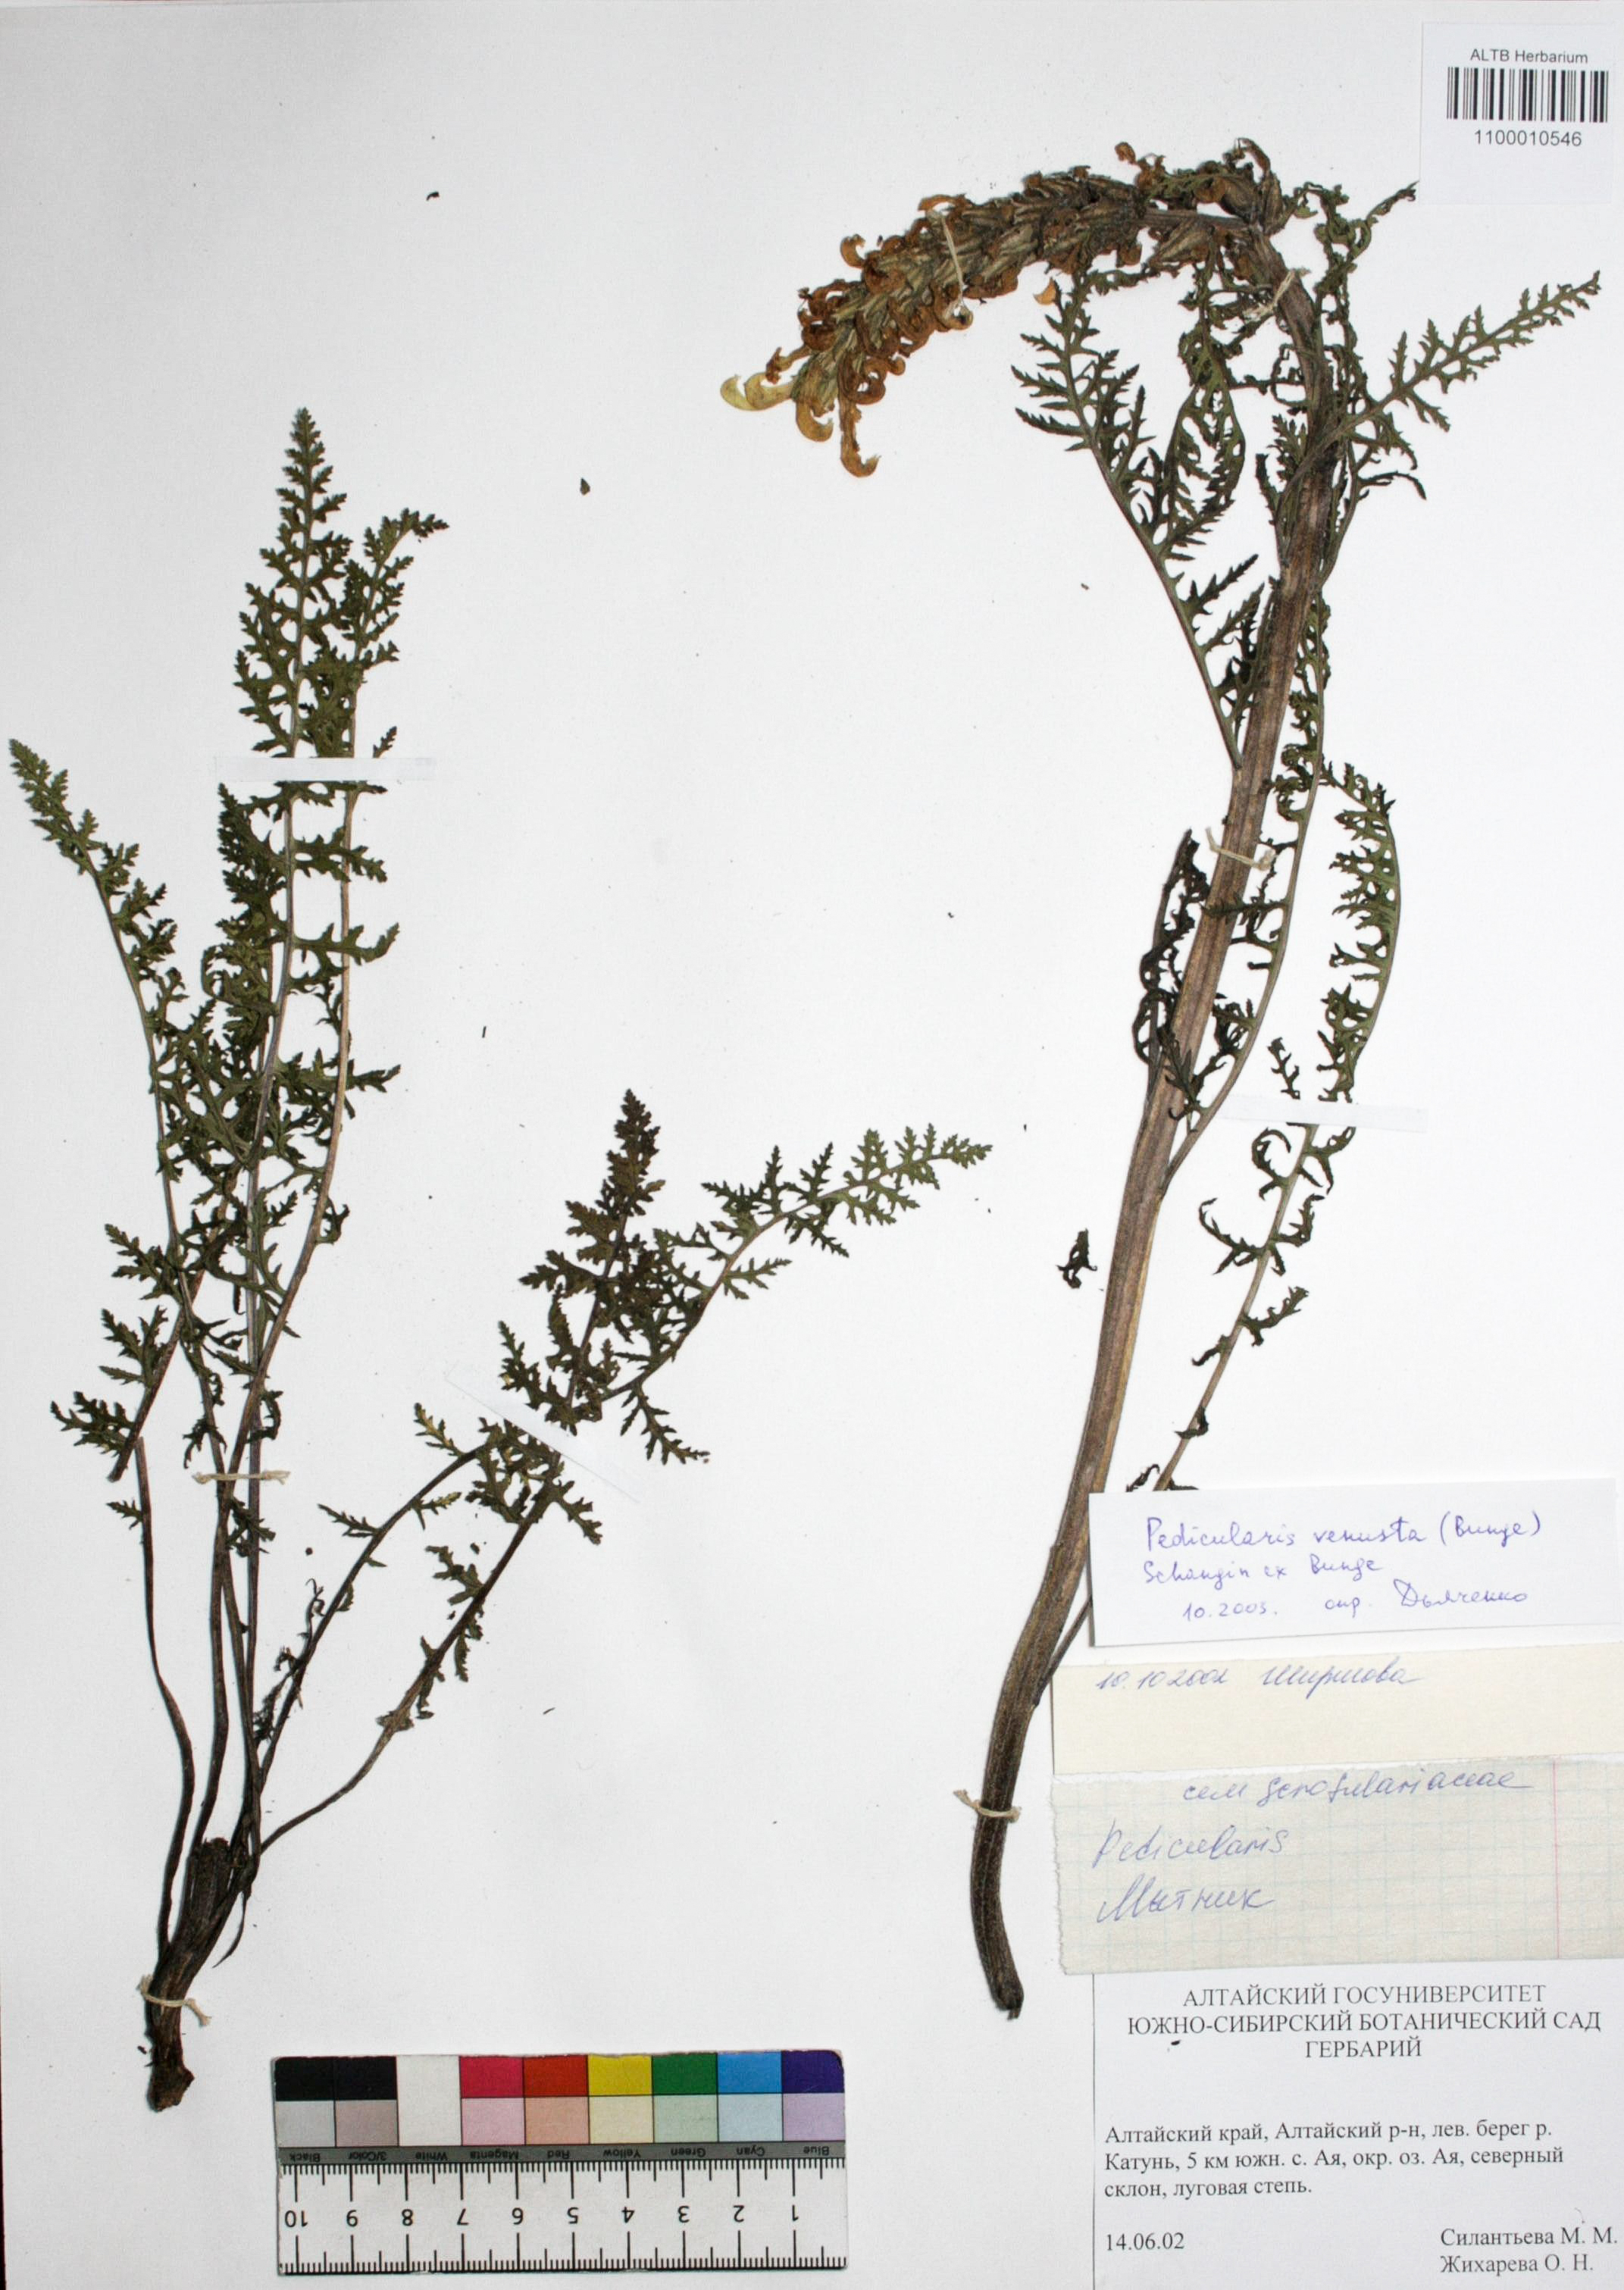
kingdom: Plantae
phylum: Tracheophyta
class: Magnoliopsida
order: Lamiales
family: Orobanchaceae
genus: Pedicularis
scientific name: Pedicularis venusta
